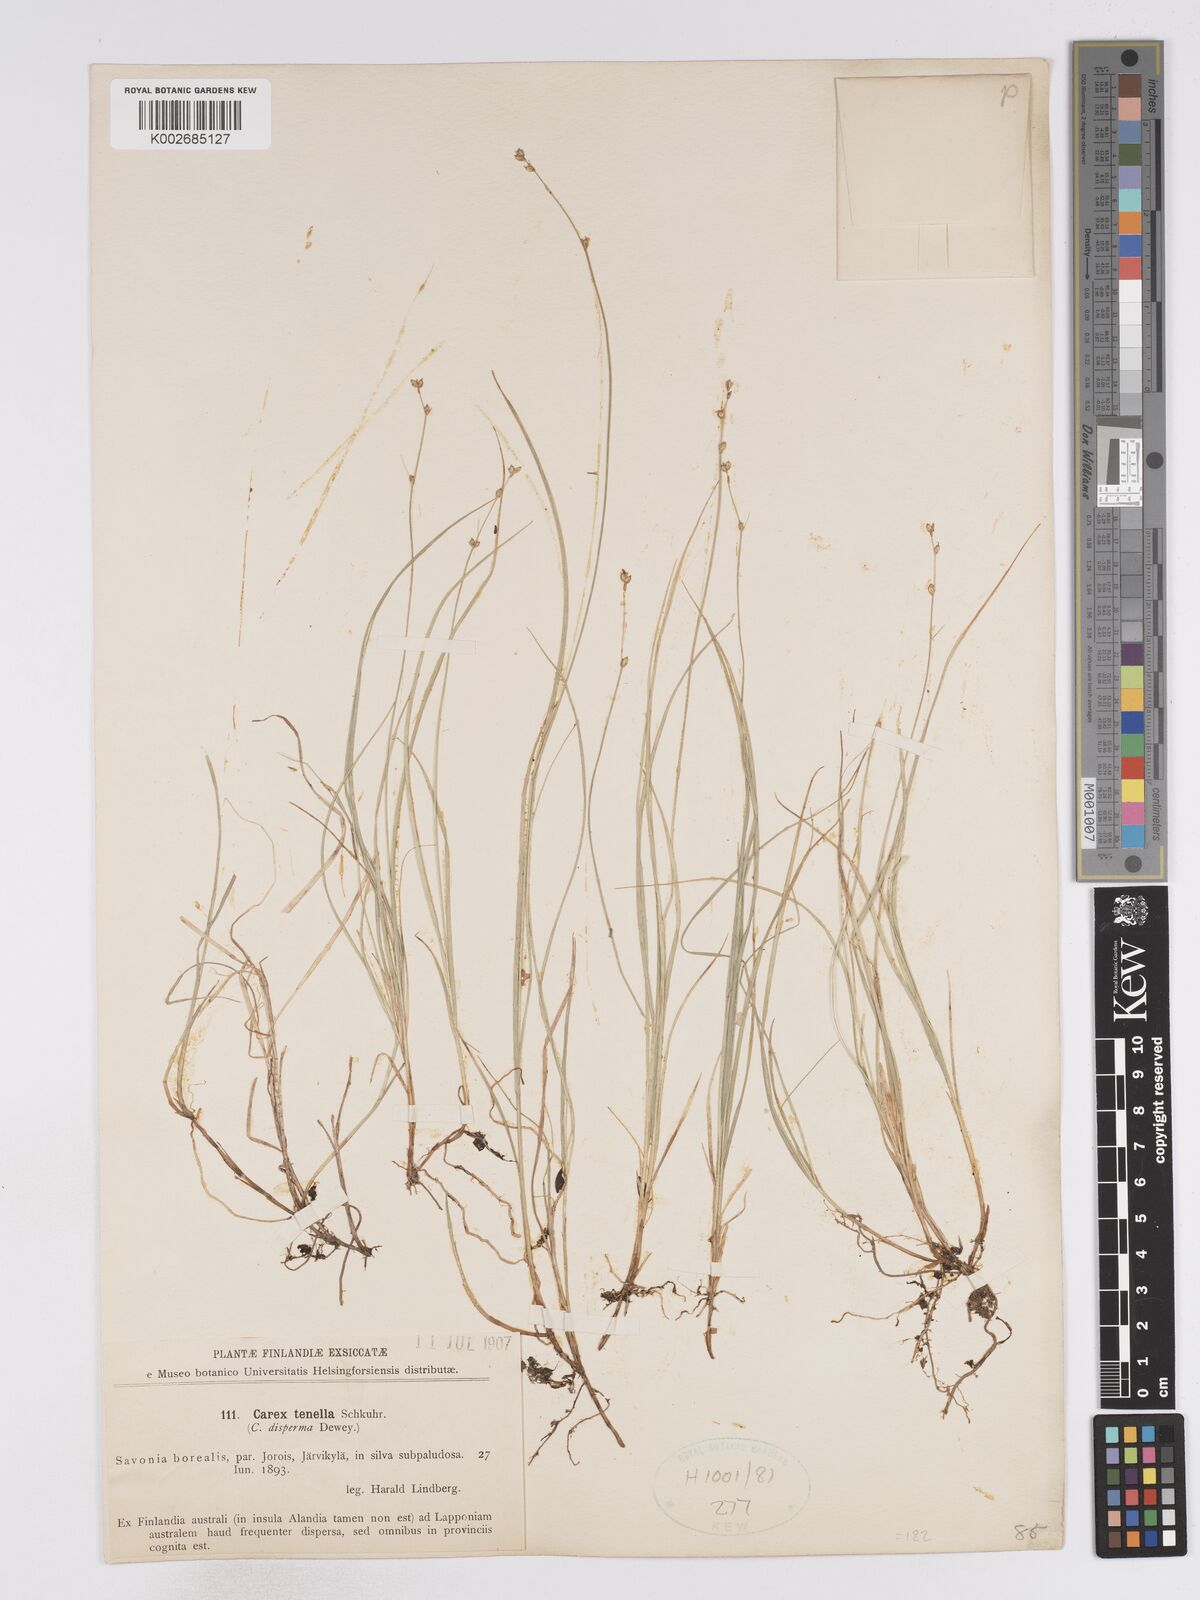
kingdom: Plantae
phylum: Tracheophyta
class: Liliopsida
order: Poales
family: Cyperaceae
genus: Carex
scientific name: Carex disperma
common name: Short-leaved sedge
